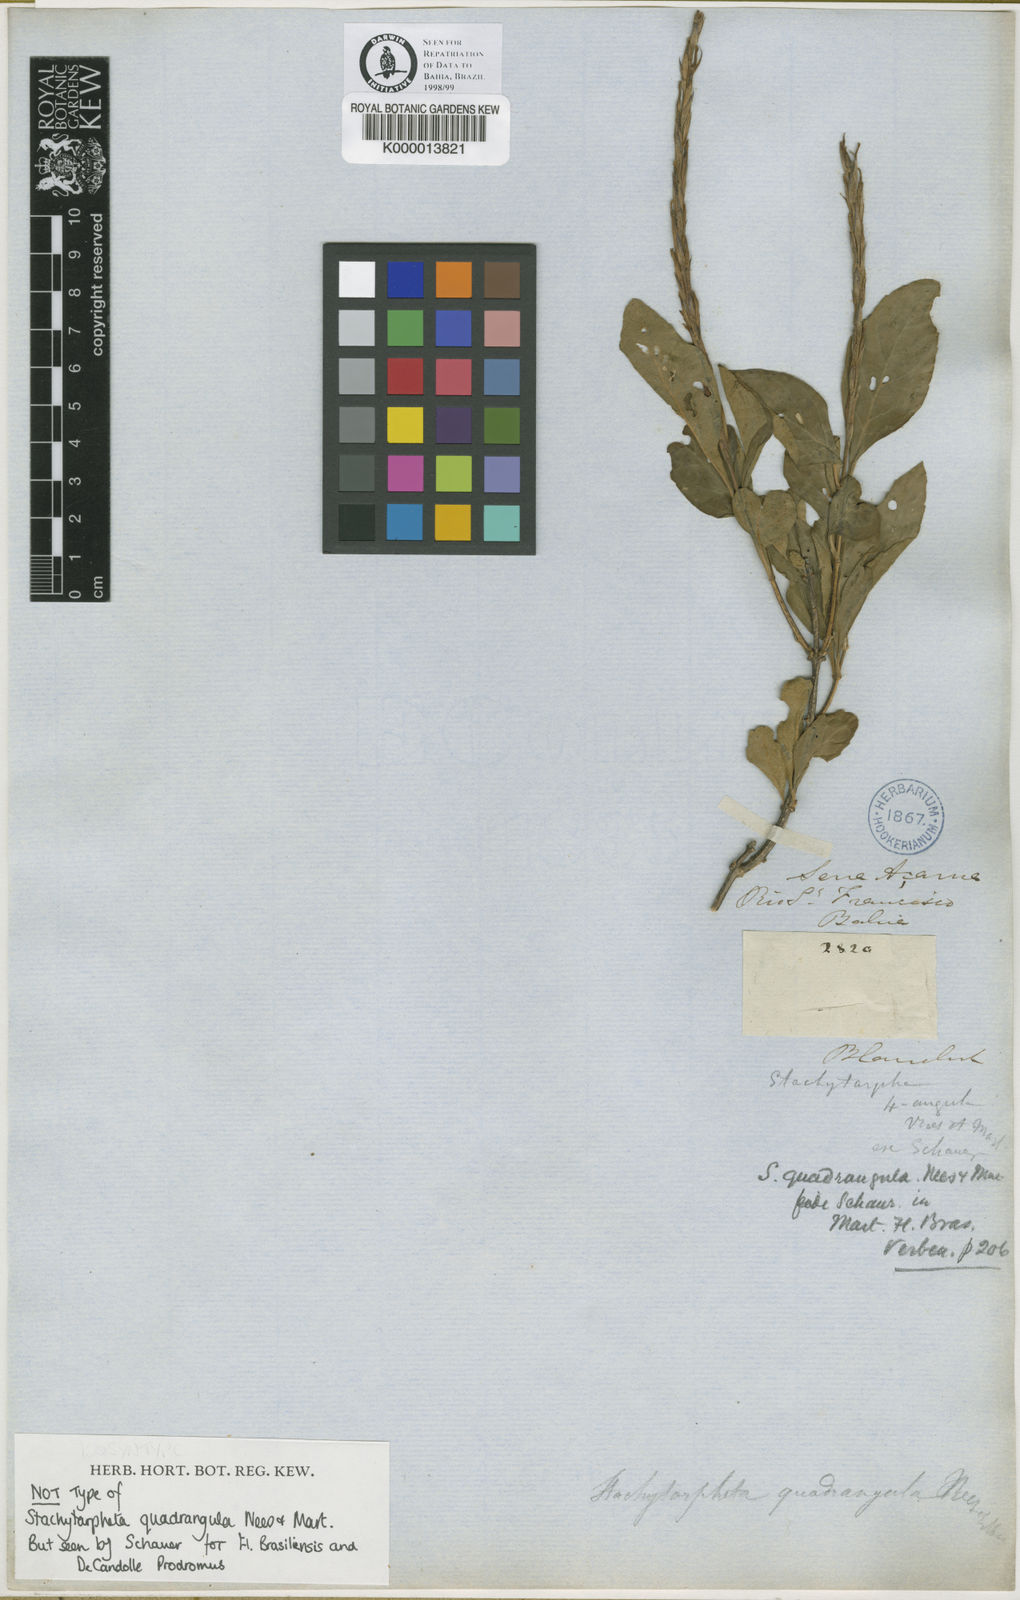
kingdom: Plantae
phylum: Tracheophyta
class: Magnoliopsida
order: Lamiales
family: Verbenaceae
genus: Stachytarpheta
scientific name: Stachytarpheta quadrangula
